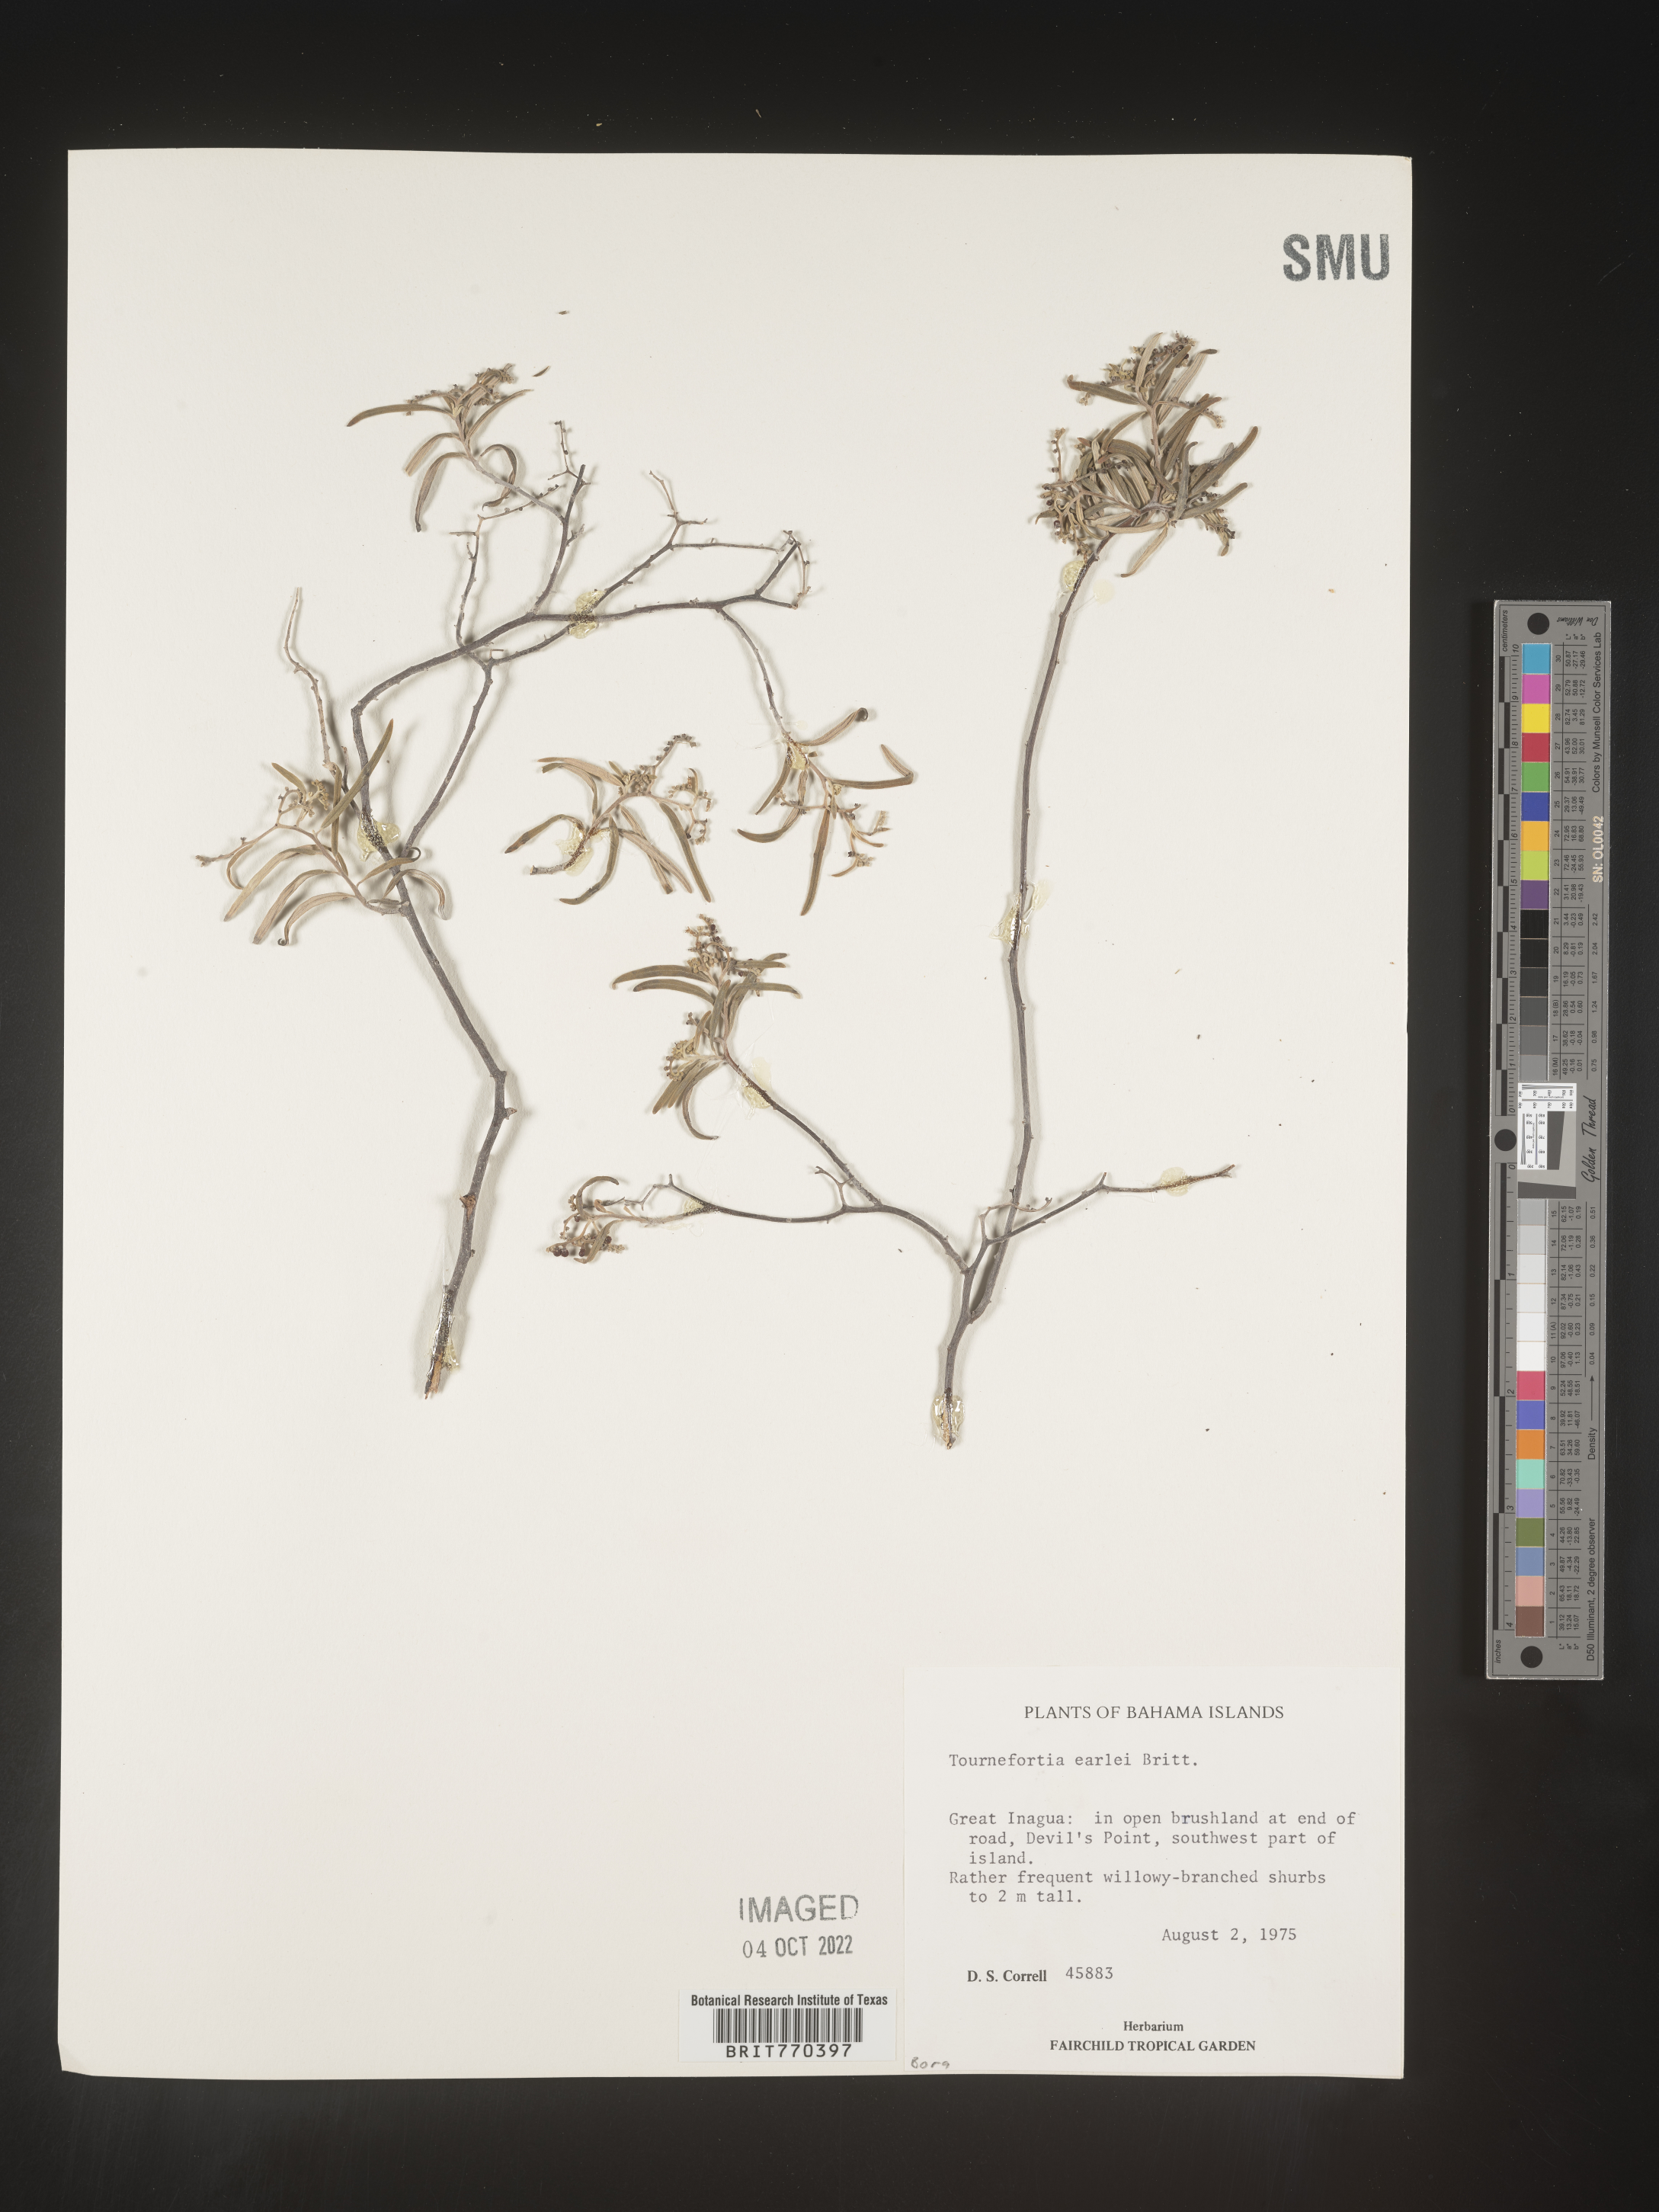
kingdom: Plantae
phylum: Tracheophyta
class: Magnoliopsida
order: Boraginales
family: Heliotropiaceae
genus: Tournefortia
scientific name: Tournefortia
